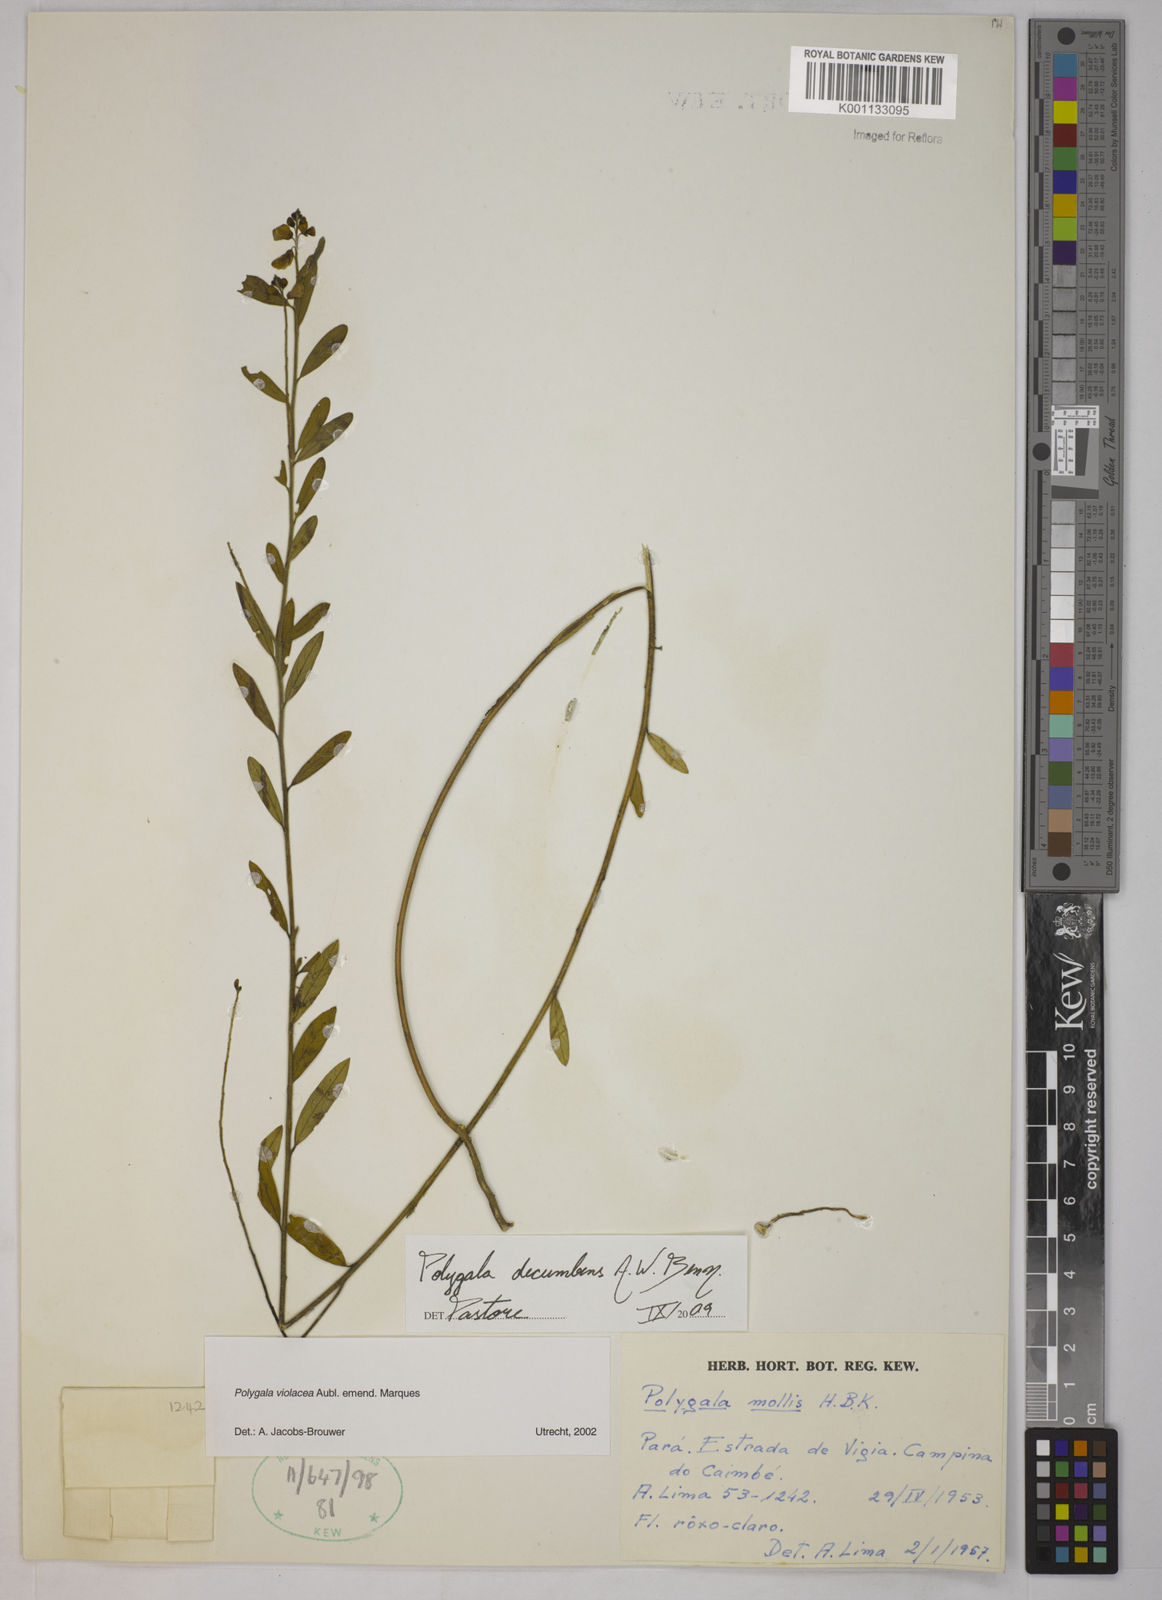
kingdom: Plantae
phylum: Tracheophyta
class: Magnoliopsida
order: Fabales
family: Polygalaceae
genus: Asemeia
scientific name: Asemeia ovata
